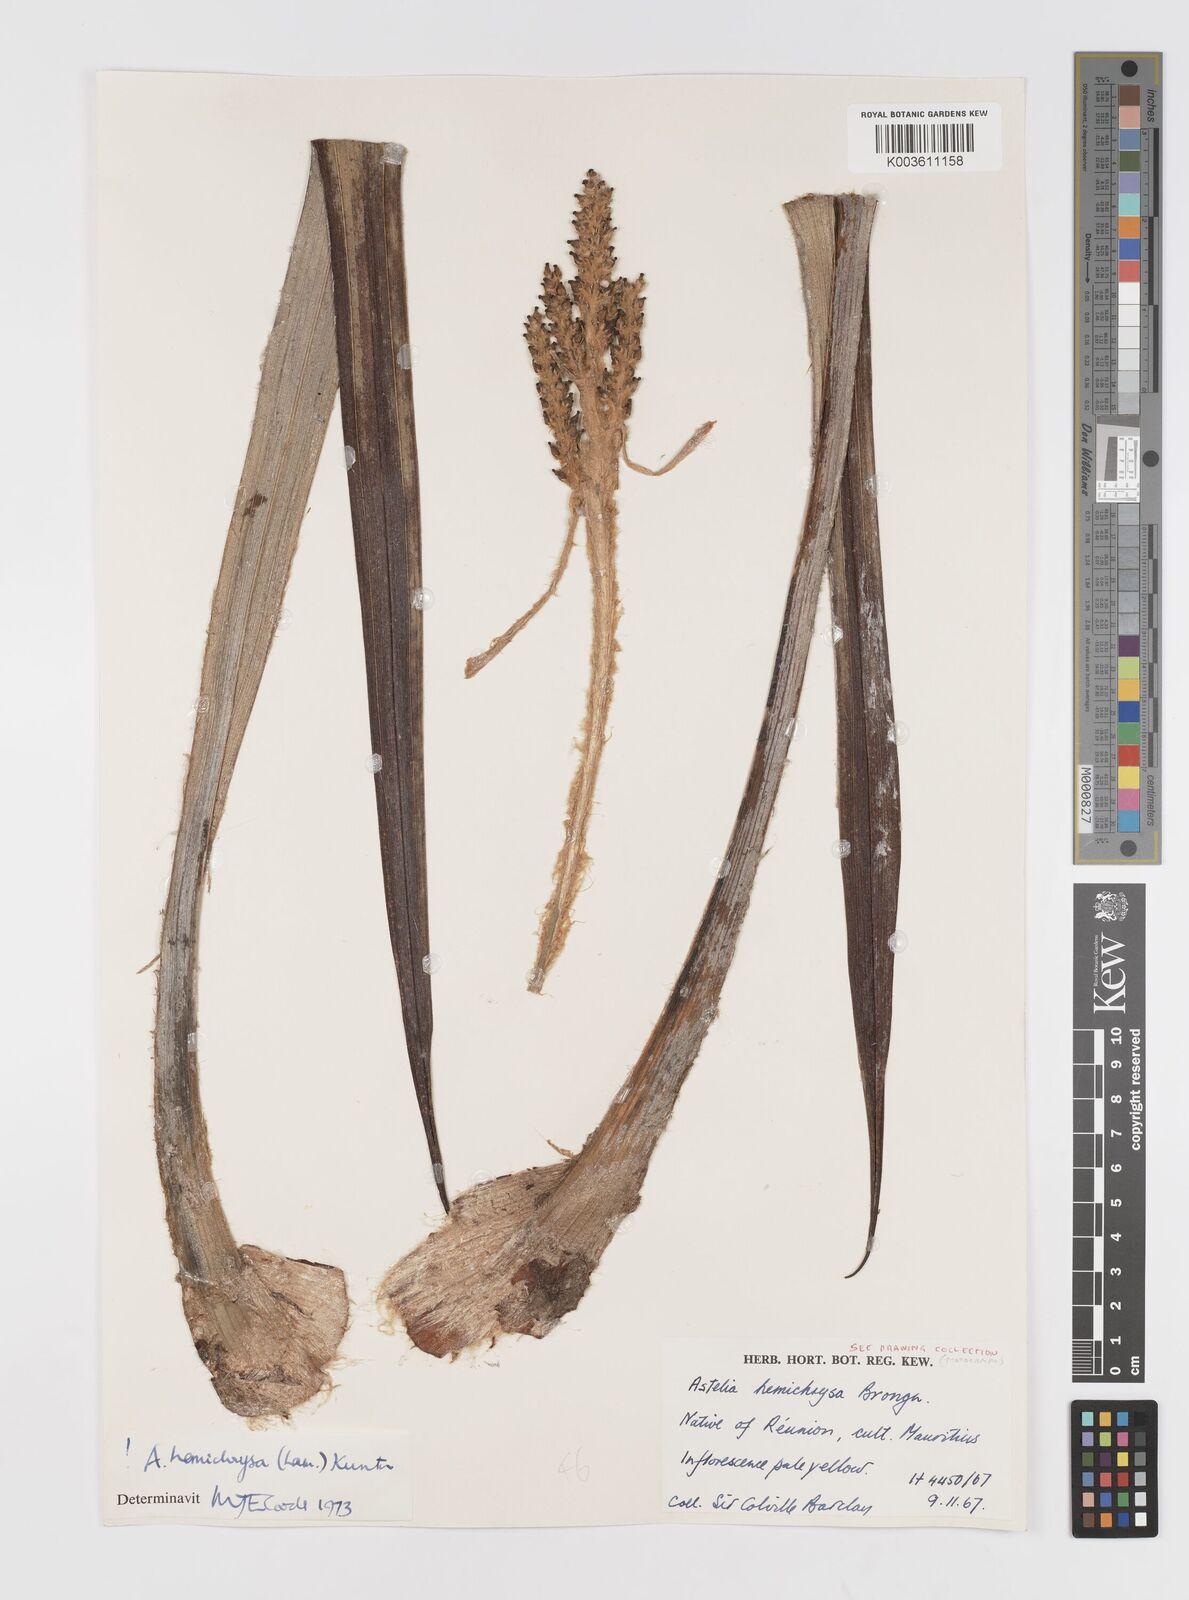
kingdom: Plantae
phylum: Tracheophyta
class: Liliopsida
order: Asparagales
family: Asteliaceae
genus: Astelia
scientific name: Astelia hemichrysa
